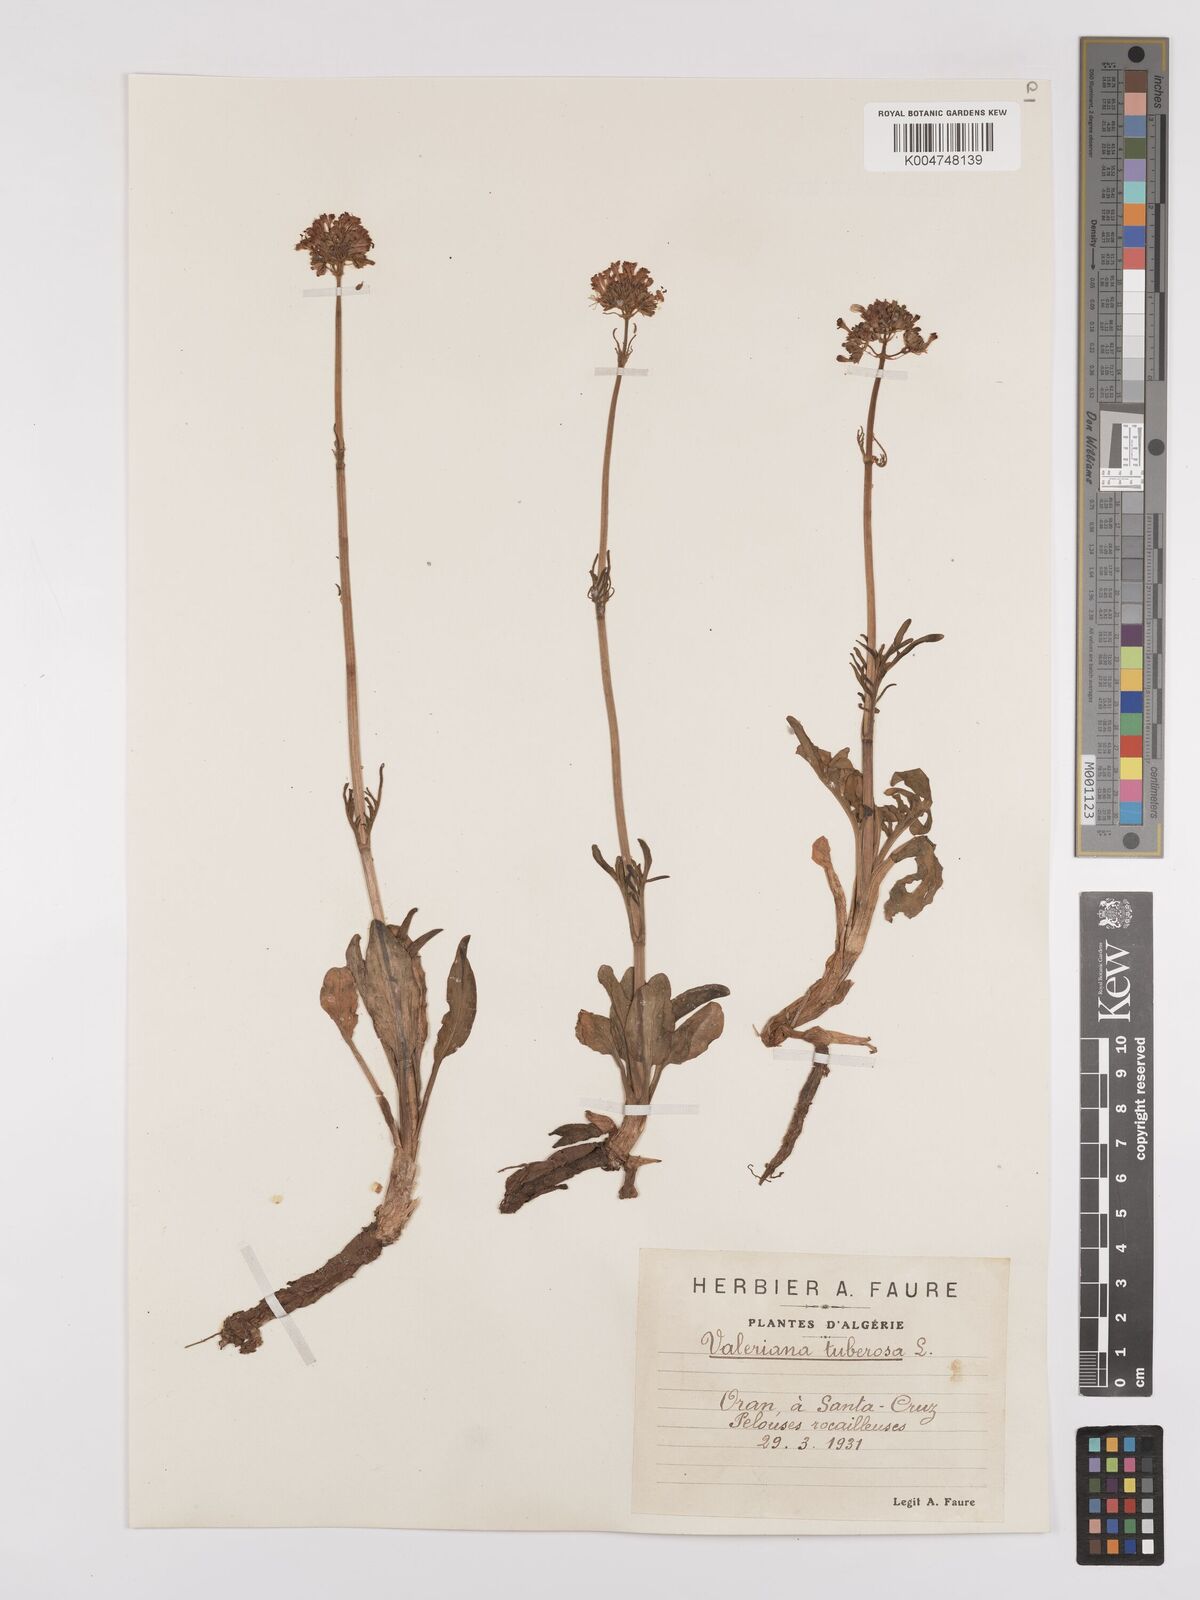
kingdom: Plantae
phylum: Tracheophyta
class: Magnoliopsida
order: Dipsacales
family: Caprifoliaceae
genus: Valeriana
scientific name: Valeriana tuberosa
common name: Tuberous valerian
